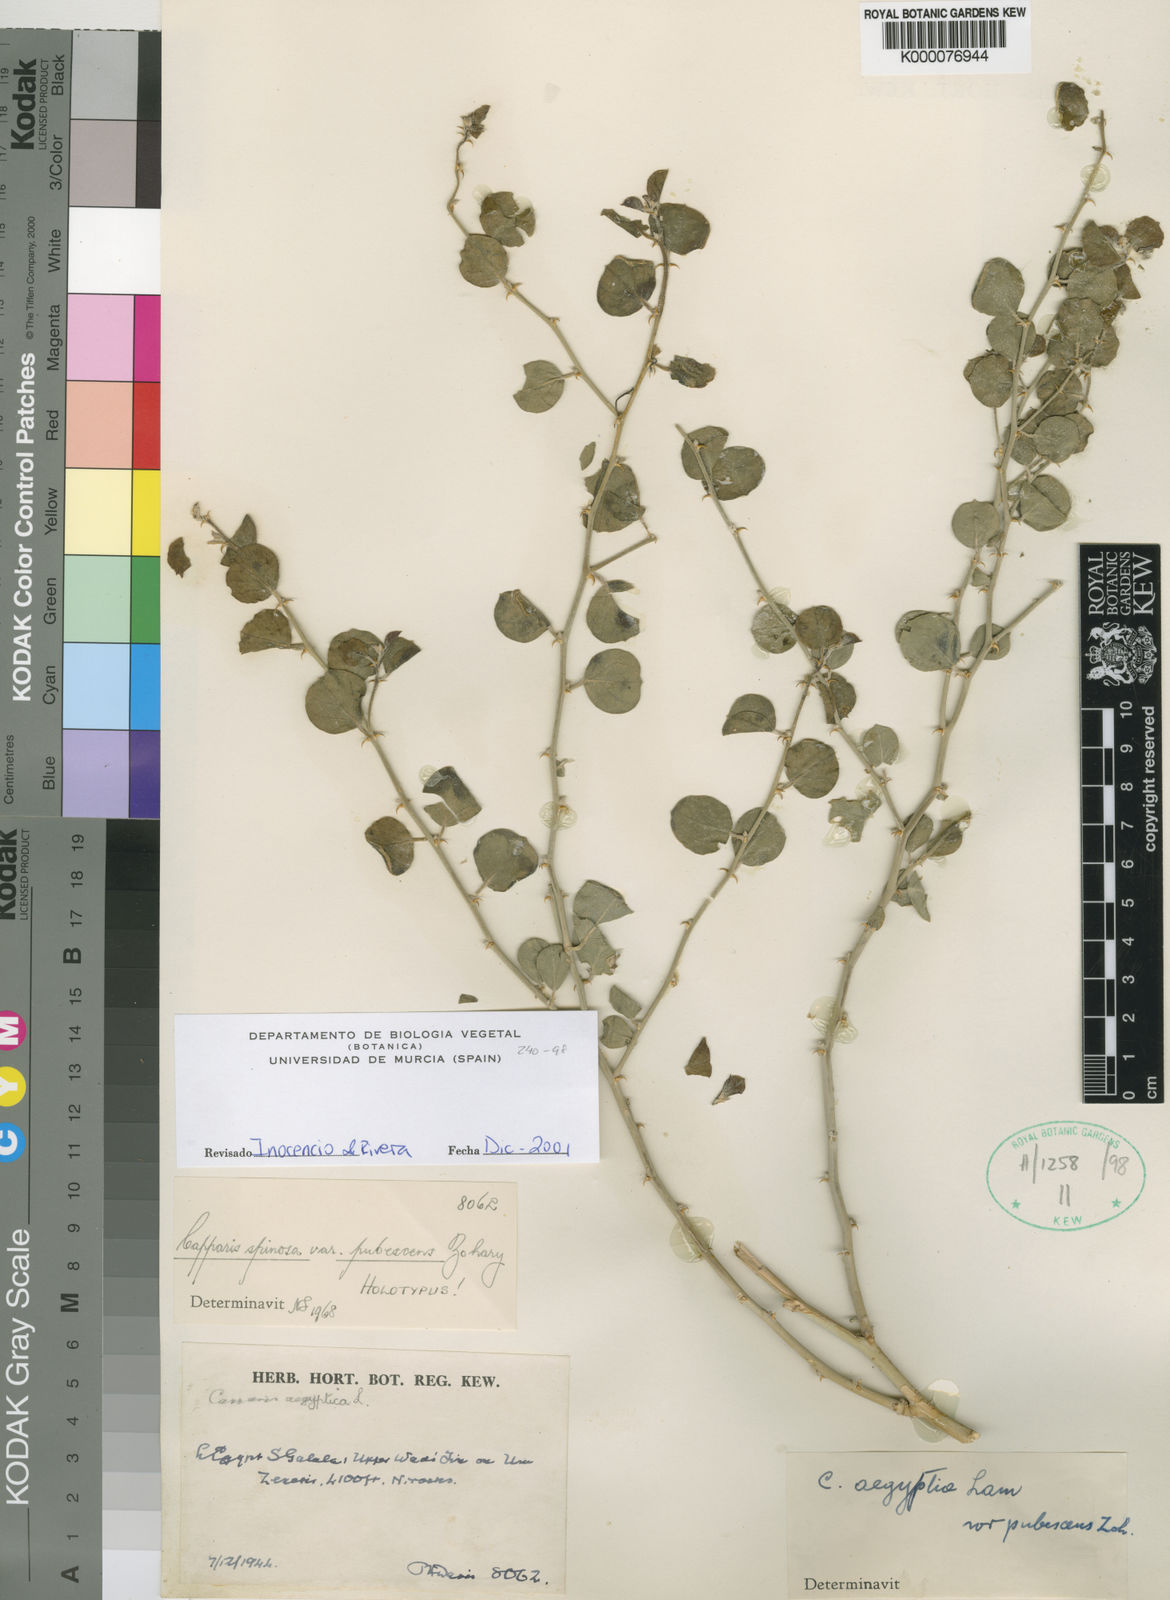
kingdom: Plantae
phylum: Tracheophyta
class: Magnoliopsida
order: Brassicales
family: Capparaceae
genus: Capparis
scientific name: Capparis spinosa
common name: Caper
